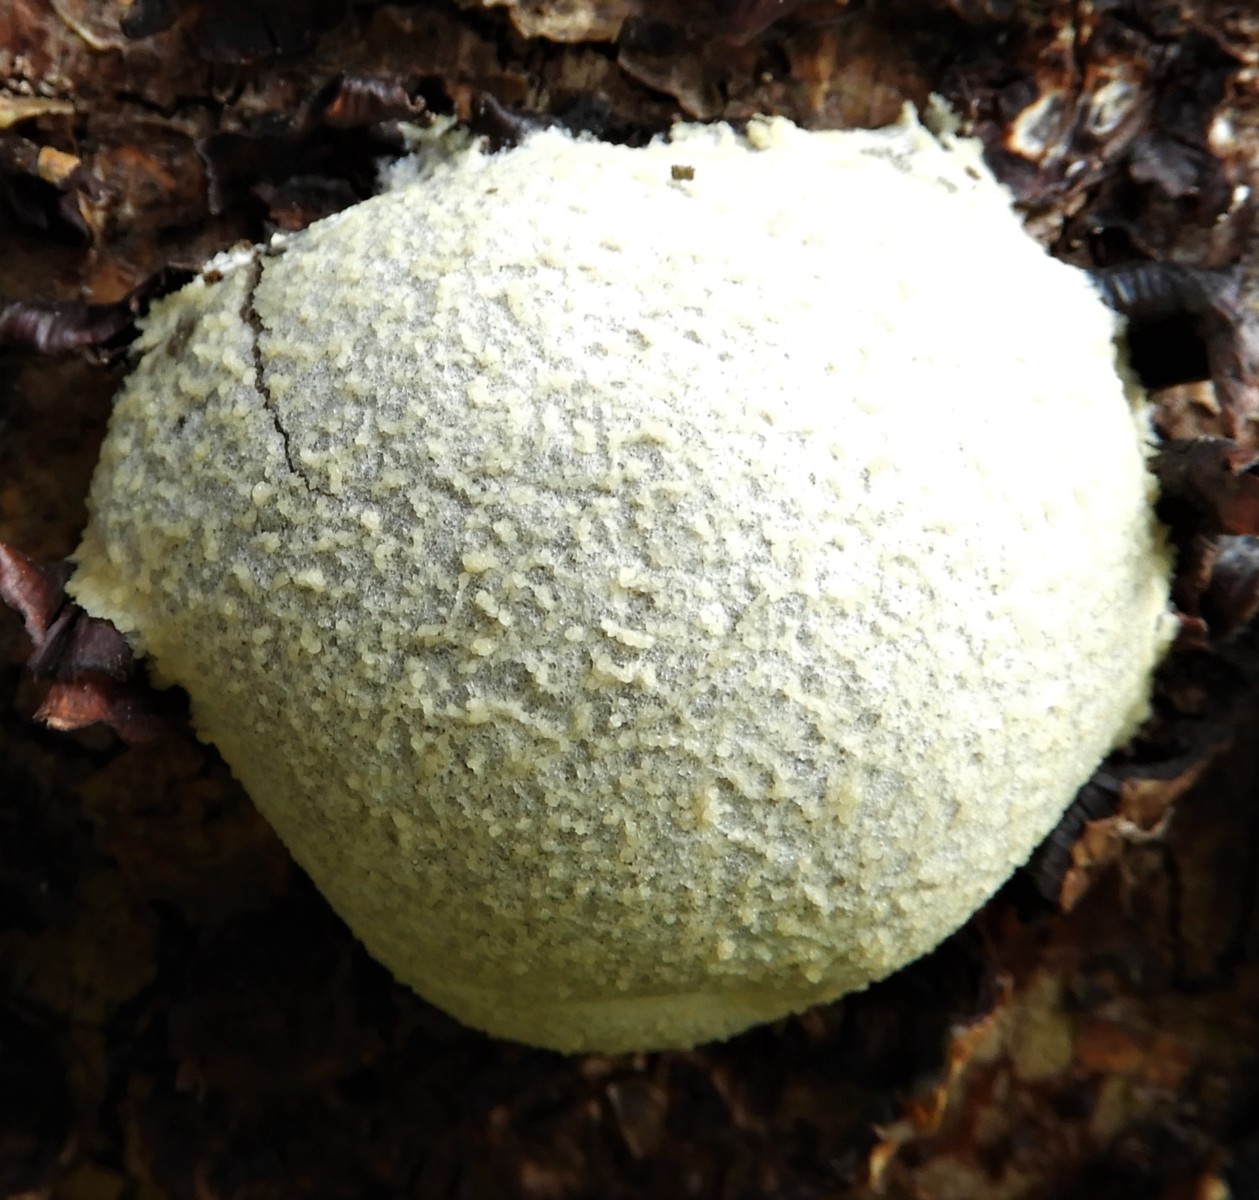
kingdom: Protozoa
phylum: Mycetozoa
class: Myxomycetes
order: Cribrariales
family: Tubiferaceae
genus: Reticularia
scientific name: Reticularia lycoperdon
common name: skinnende støvpude
